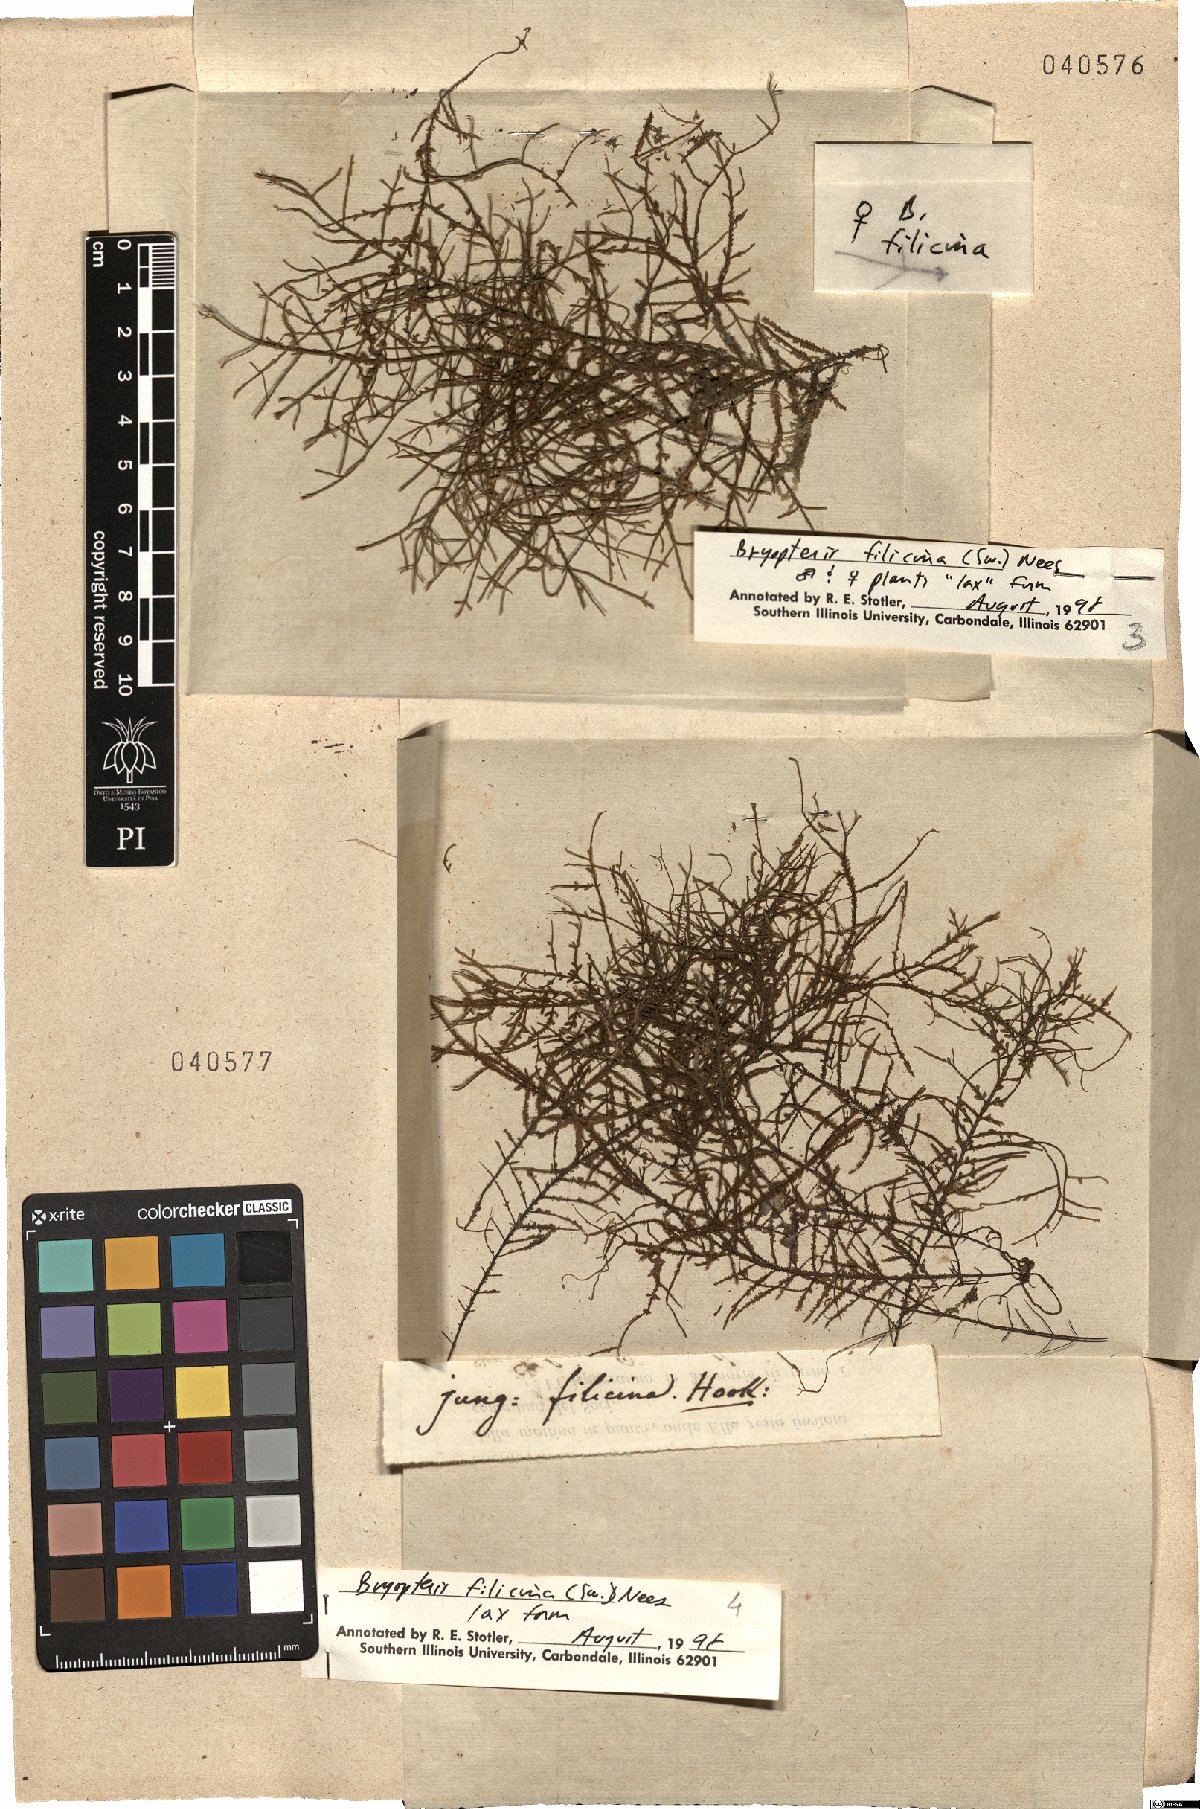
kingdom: Plantae
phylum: Marchantiophyta
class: Jungermanniopsida
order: Porellales
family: Lejeuneaceae
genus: Bryopteris
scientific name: Bryopteris filicina
